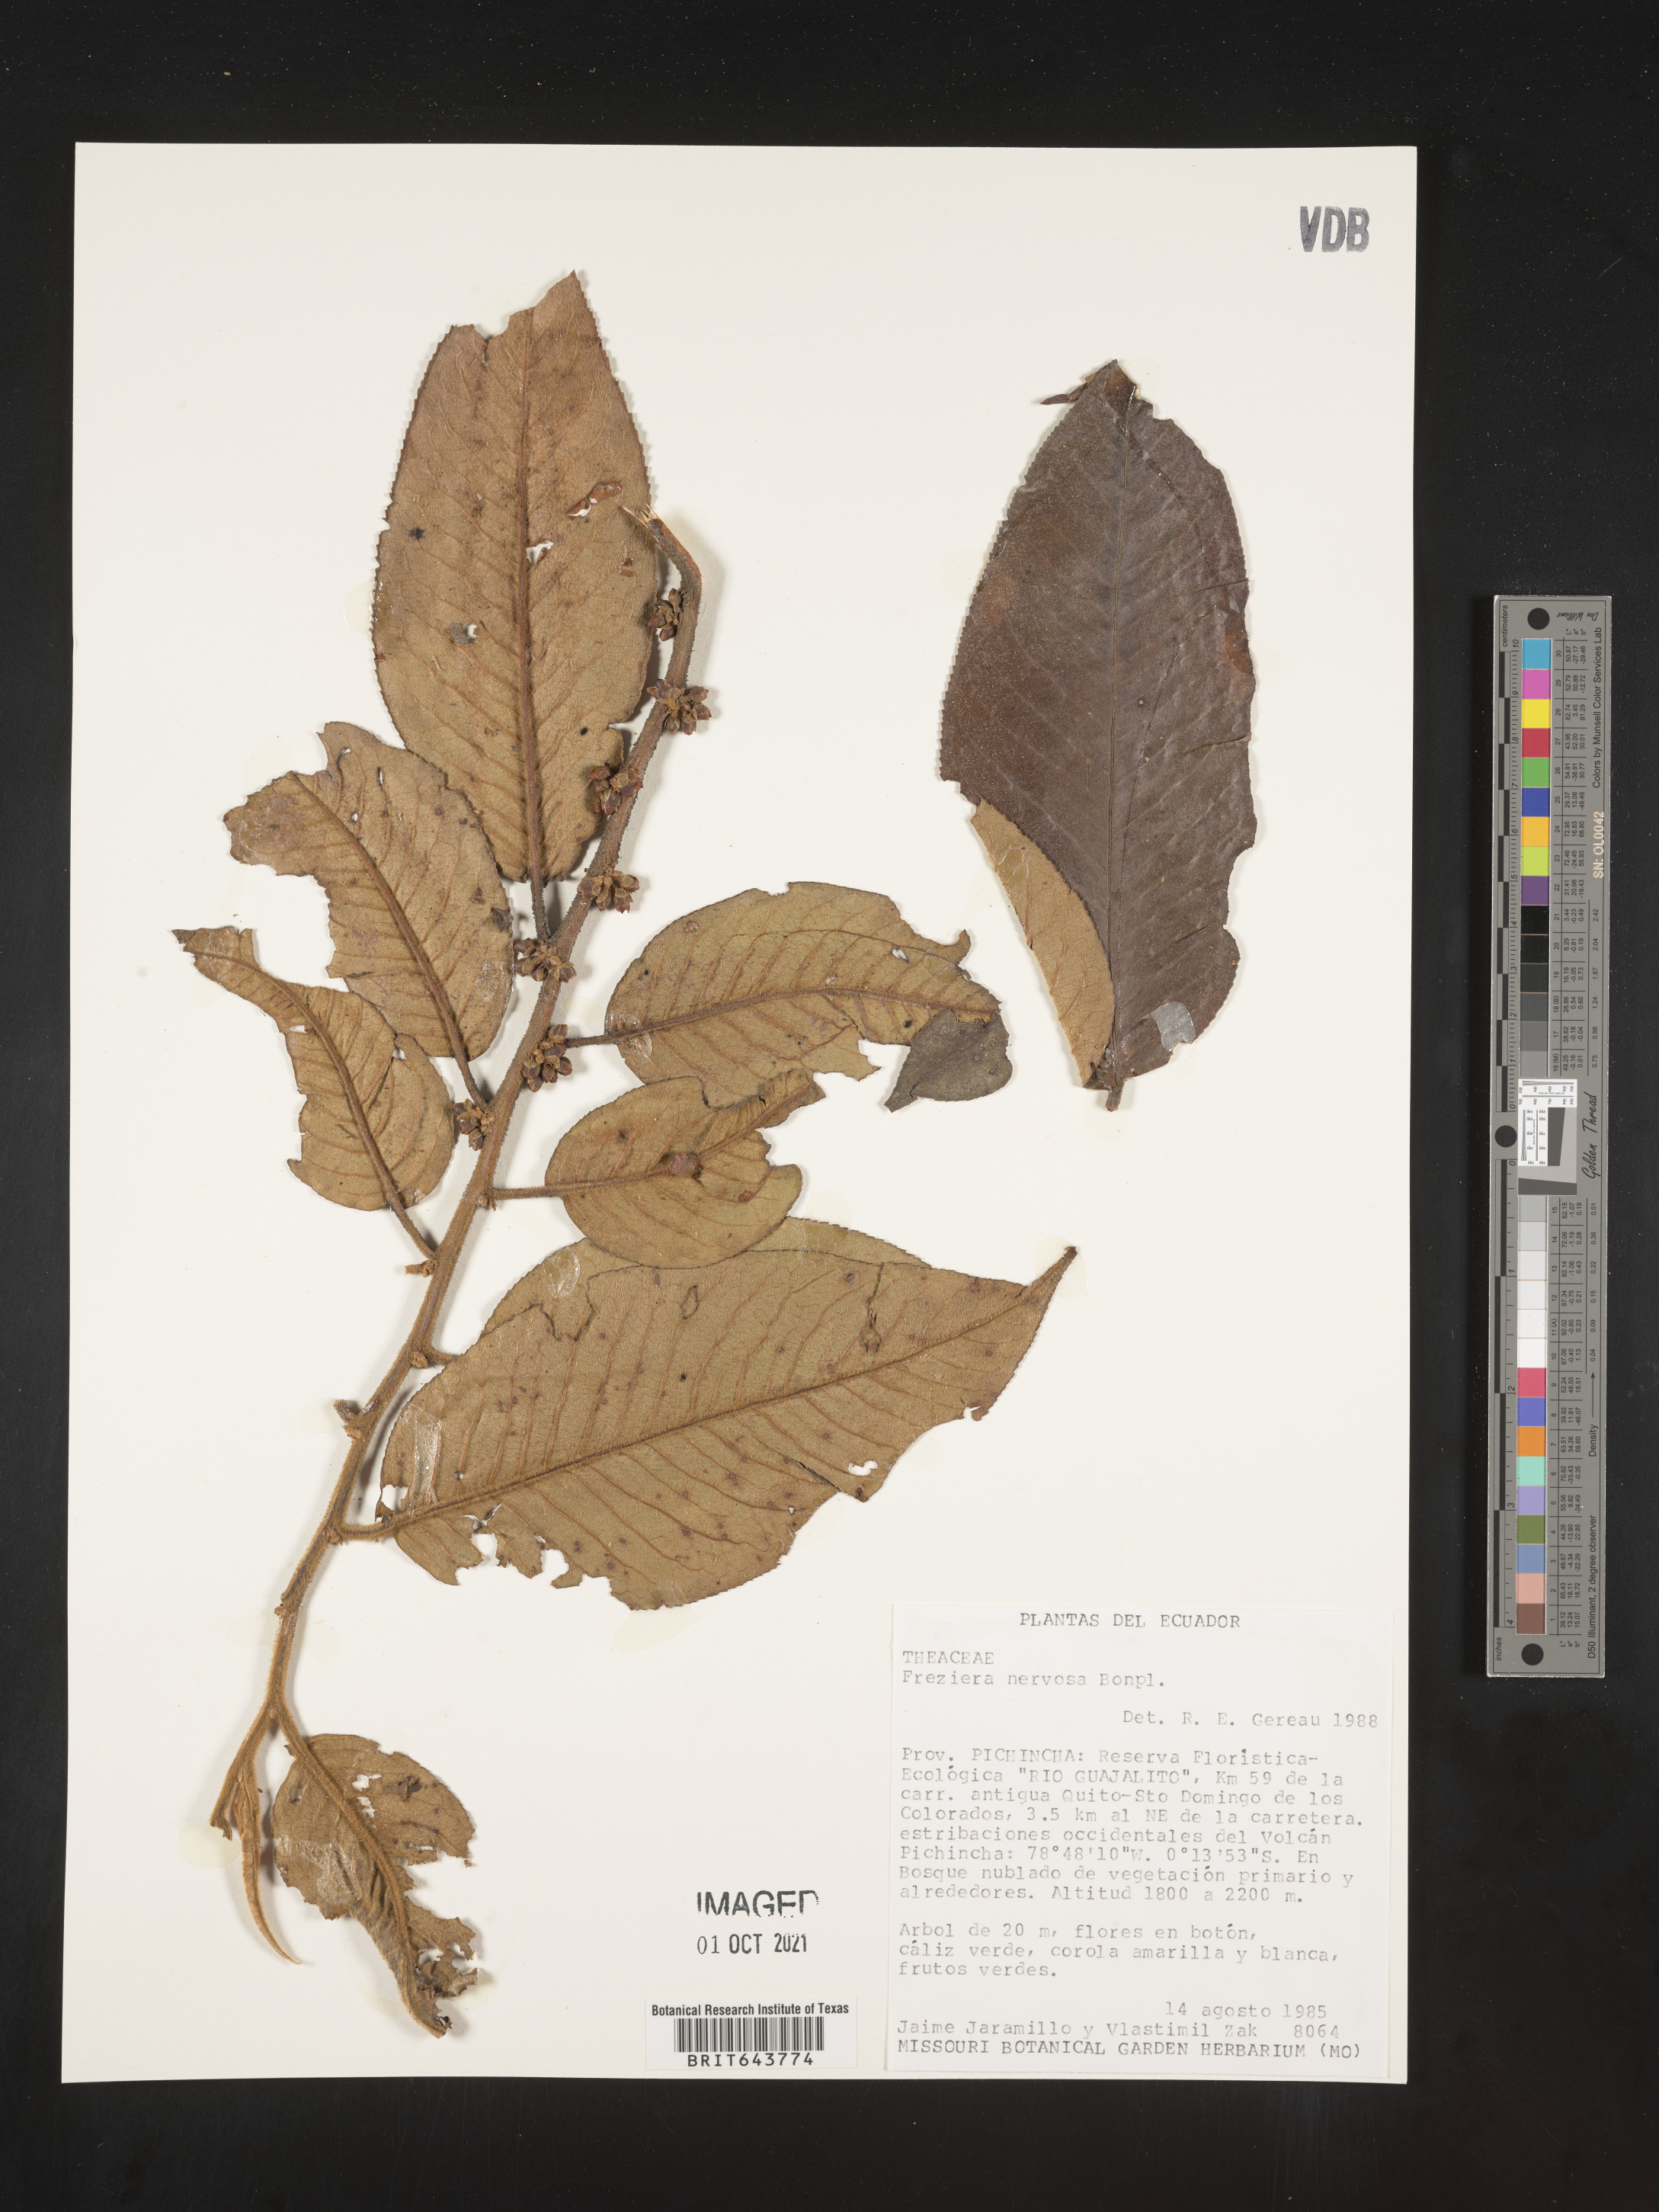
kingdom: Plantae
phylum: Tracheophyta
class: Magnoliopsida
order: Ericales
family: Pentaphylacaceae
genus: Freziera
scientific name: Freziera
